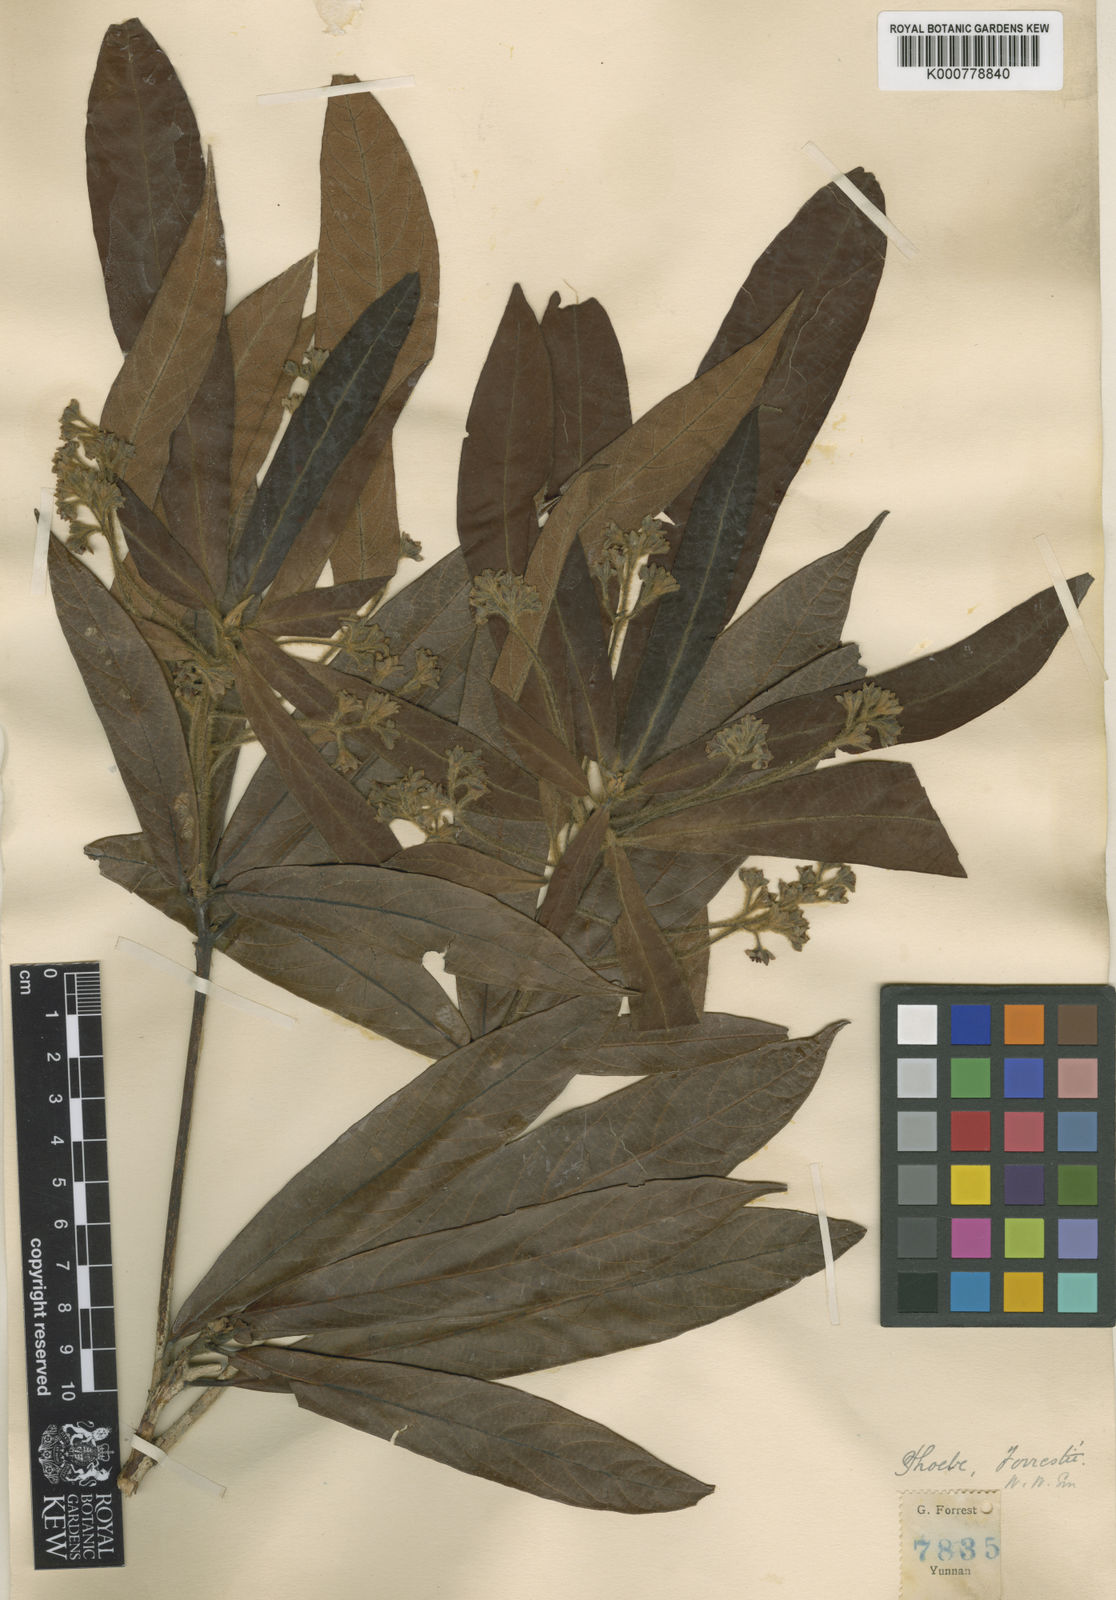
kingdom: Plantae
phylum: Tracheophyta
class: Magnoliopsida
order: Laurales
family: Lauraceae
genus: Machilus
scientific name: Machilus forrestii
